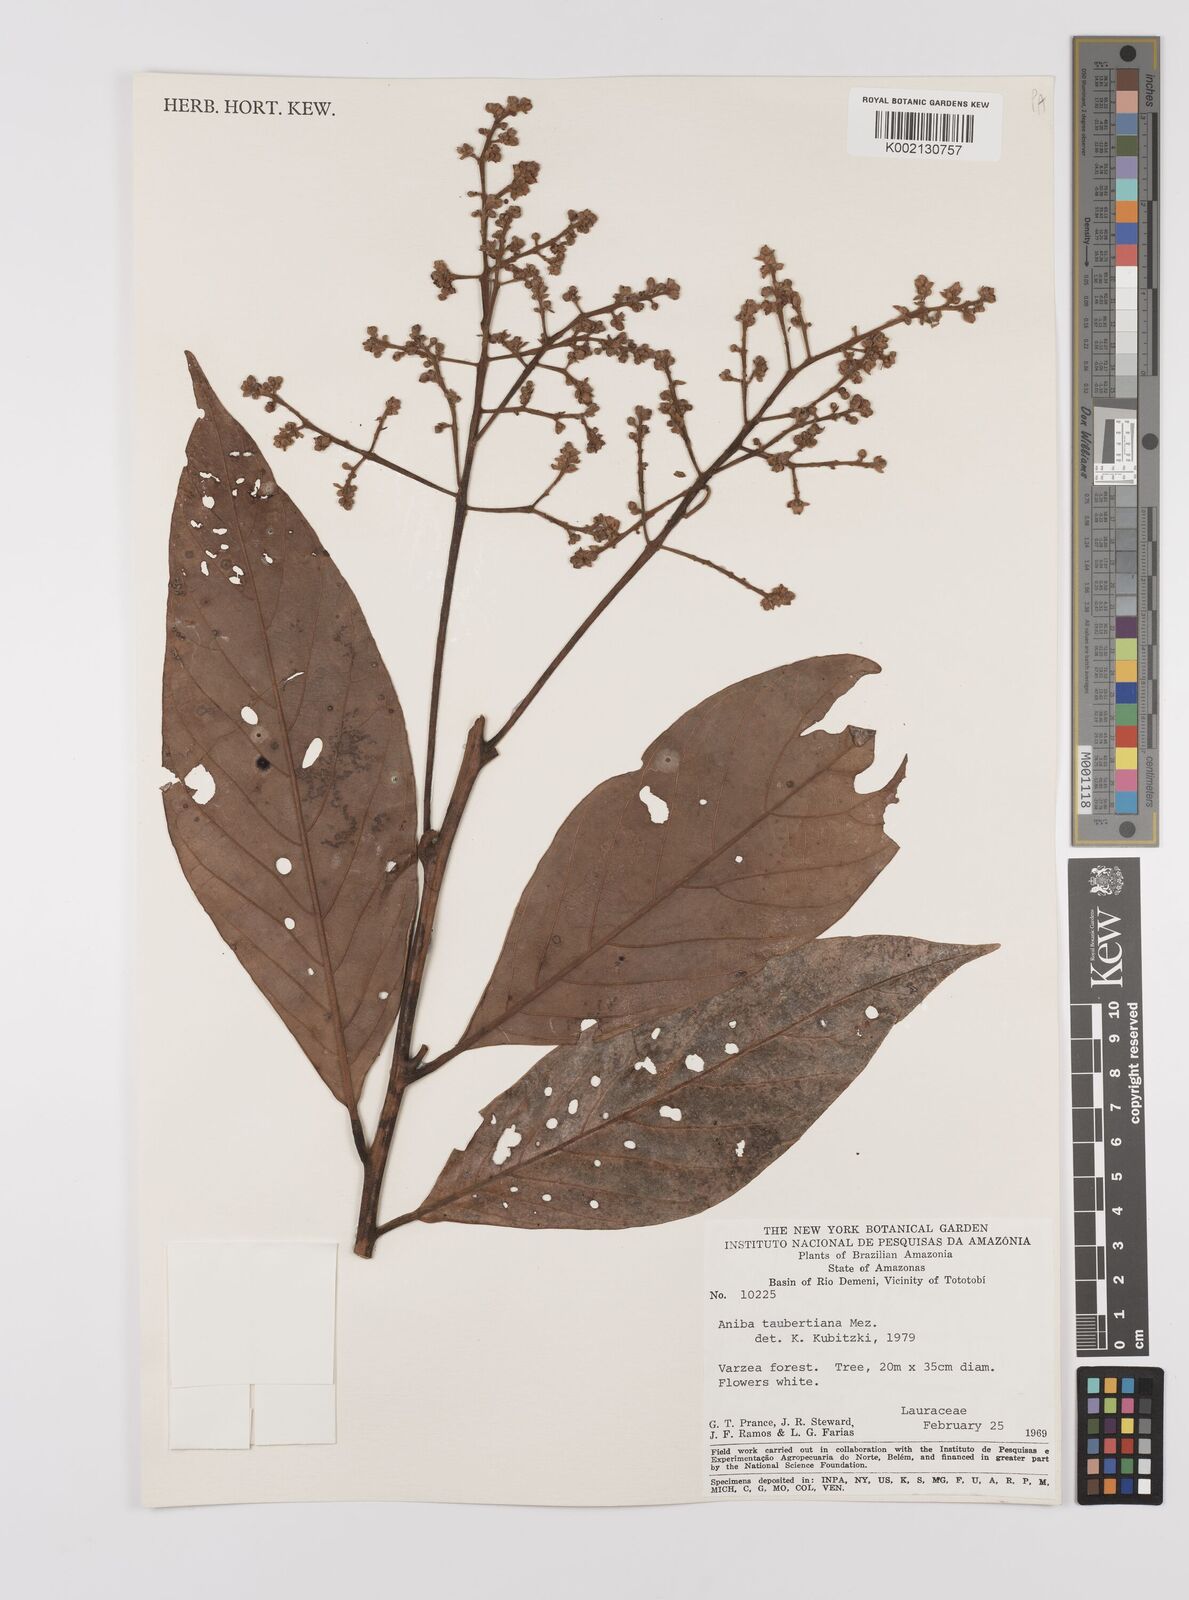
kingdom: Plantae
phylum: Tracheophyta
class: Magnoliopsida
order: Laurales
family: Lauraceae
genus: Aniba
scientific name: Aniba taubertiana
